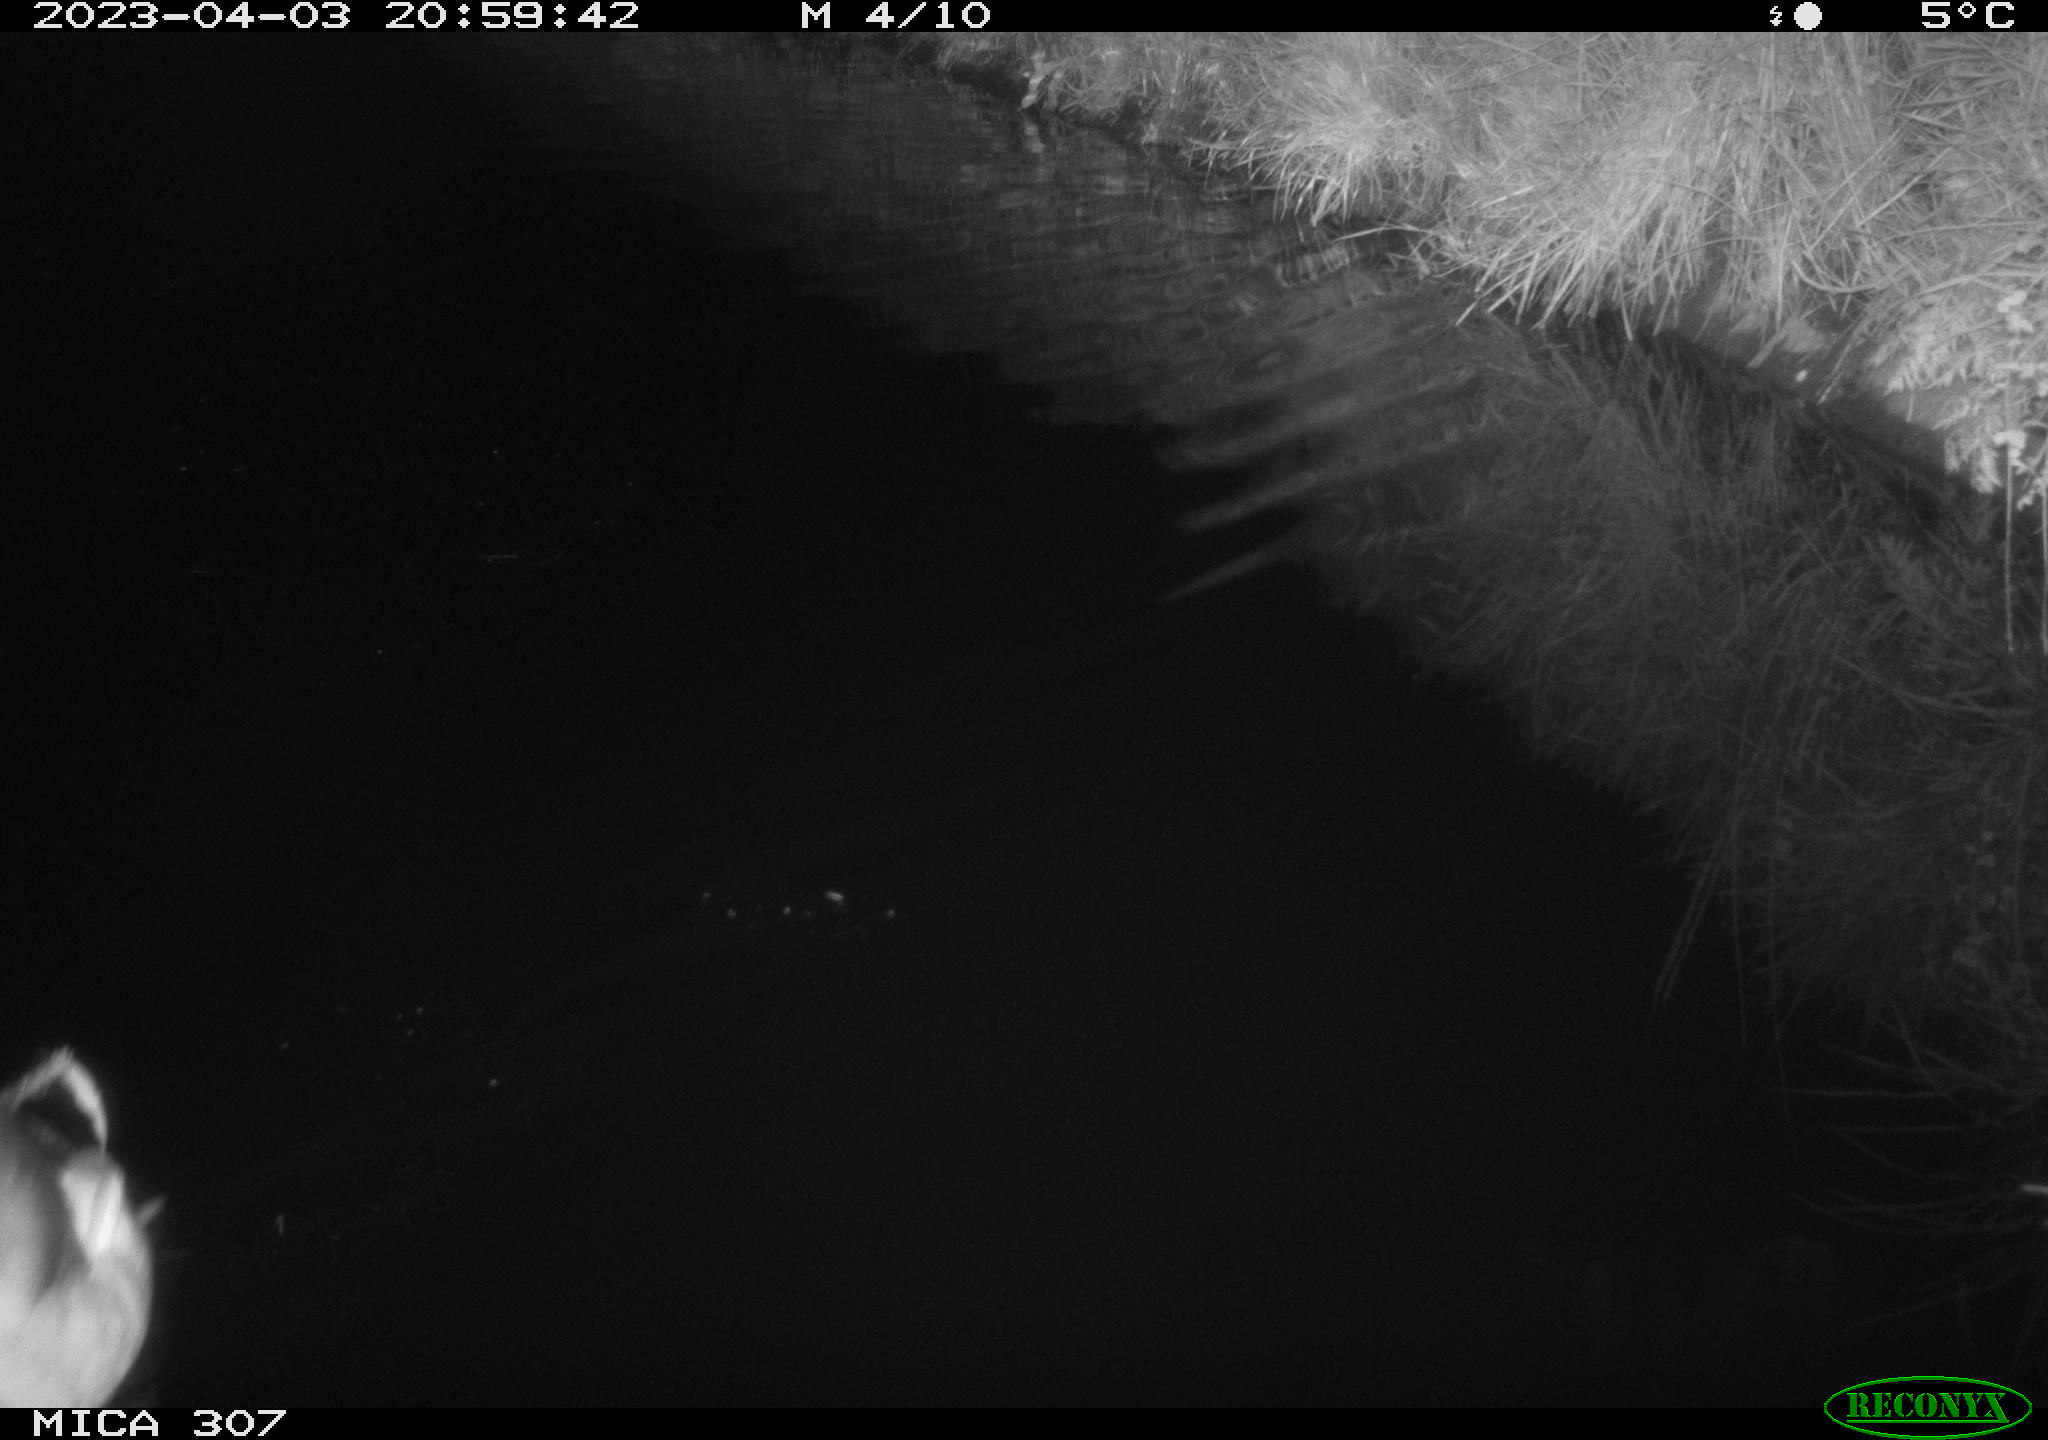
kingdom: Animalia
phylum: Chordata
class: Aves
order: Anseriformes
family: Anatidae
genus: Anas
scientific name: Anas
